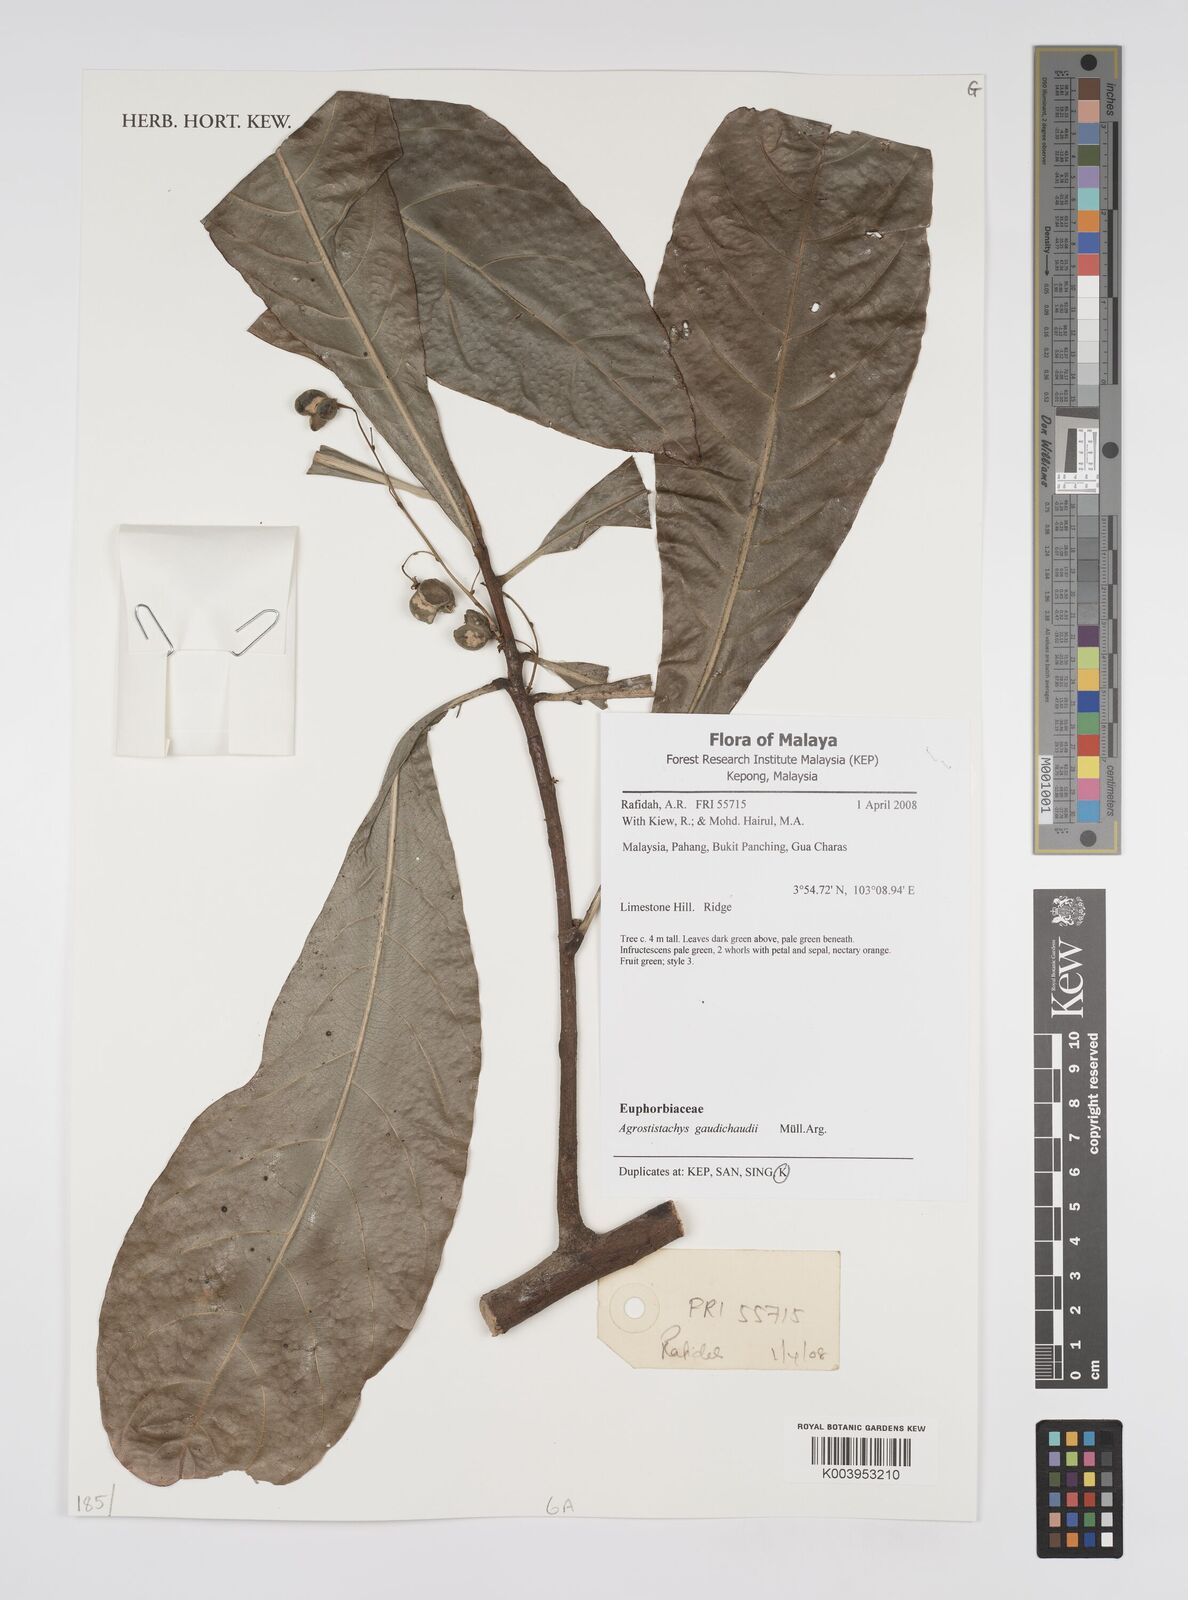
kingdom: Plantae
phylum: Tracheophyta
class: Magnoliopsida
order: Malpighiales
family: Euphorbiaceae
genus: Agrostistachys
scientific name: Agrostistachys gaudichaudii
